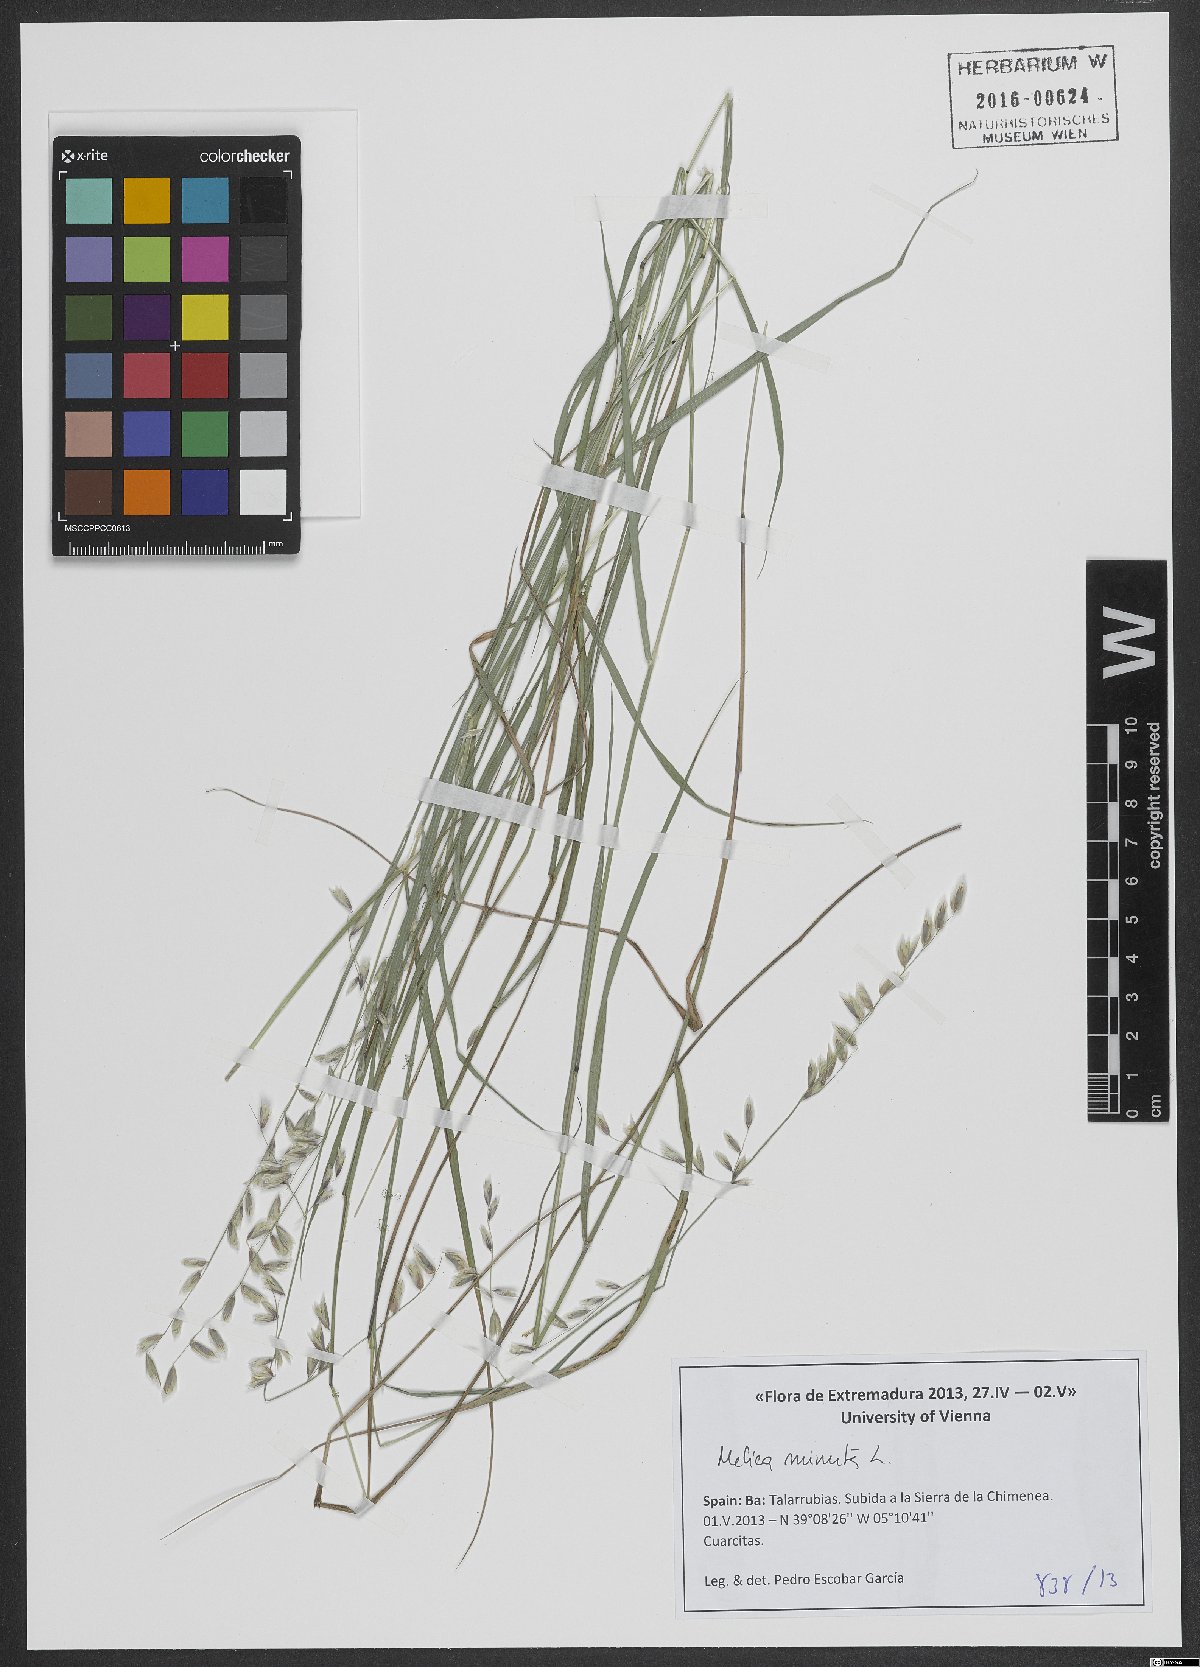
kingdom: Plantae
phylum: Tracheophyta
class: Liliopsida
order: Poales
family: Poaceae
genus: Melica
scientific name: Melica minuta
